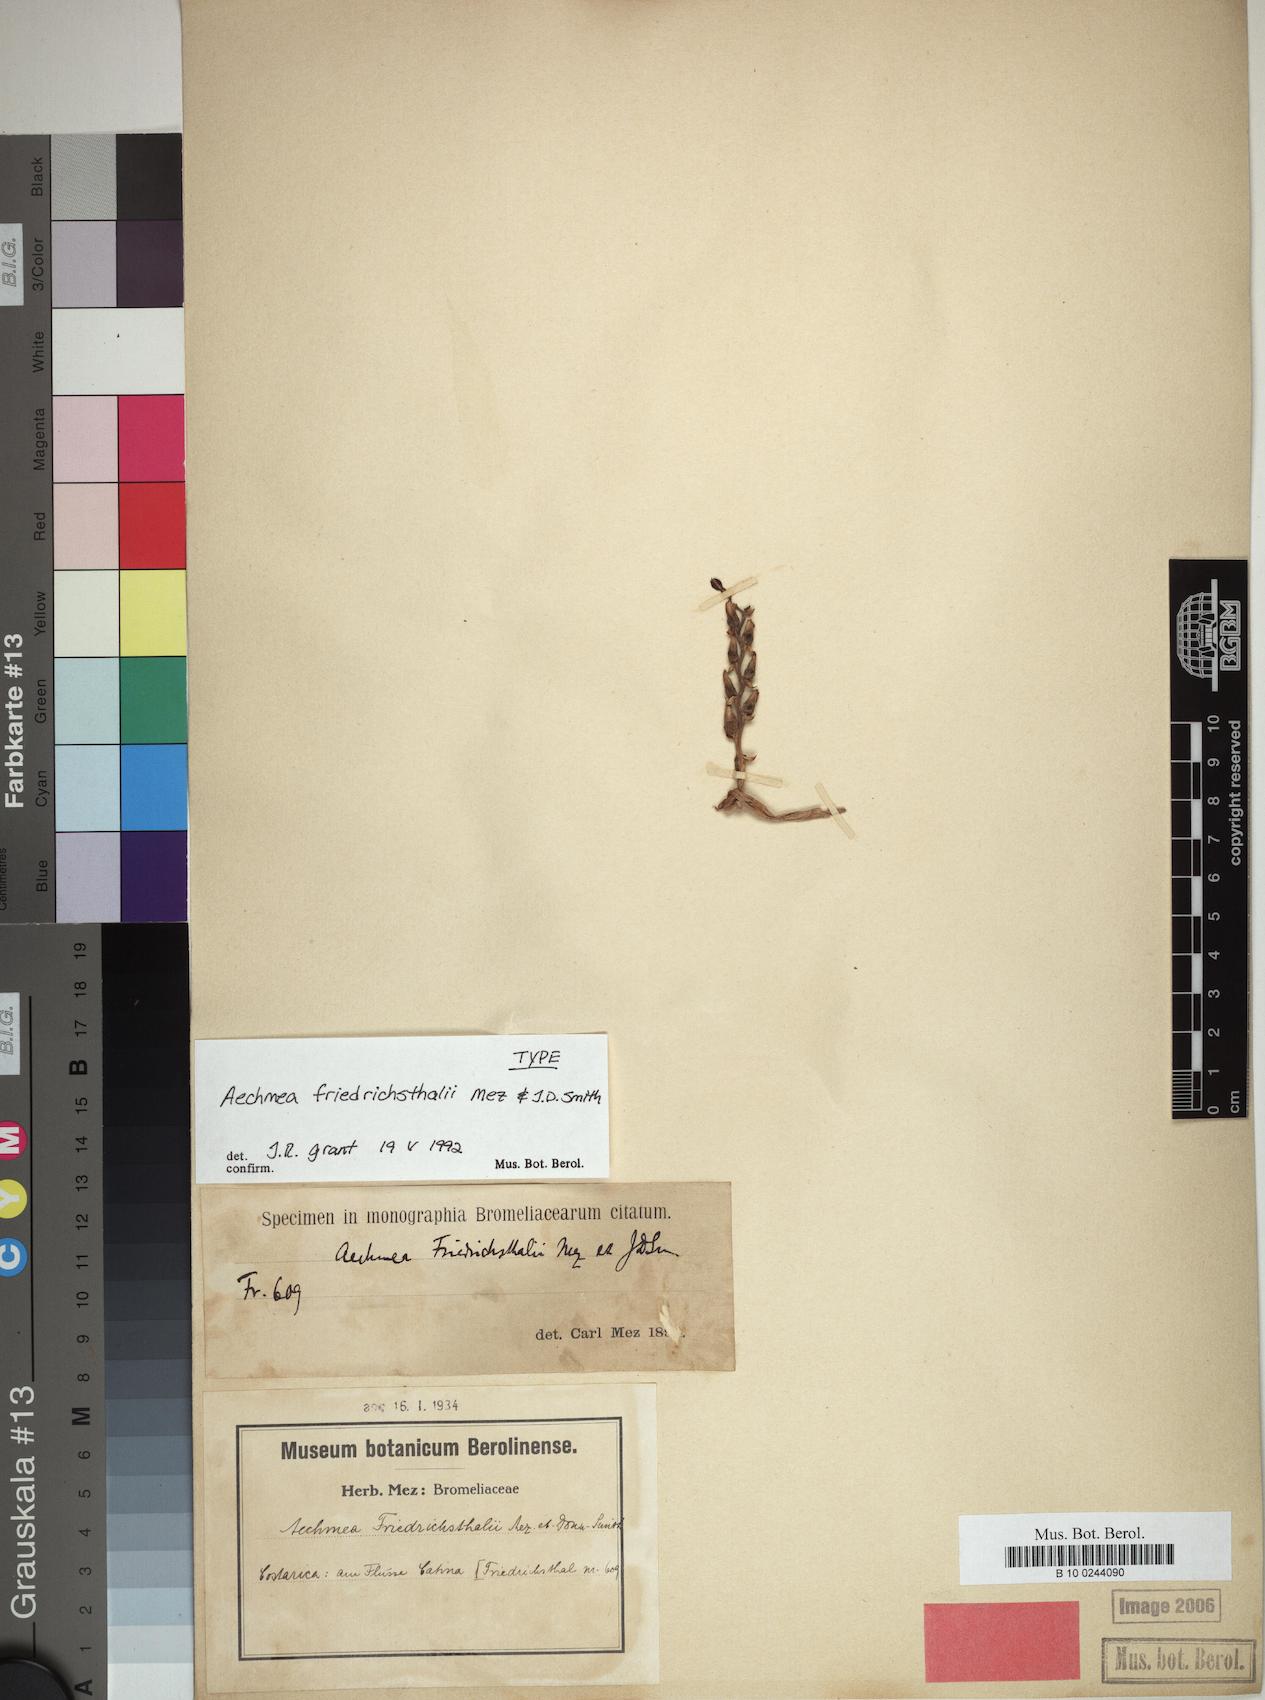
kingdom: Plantae
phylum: Tracheophyta
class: Liliopsida
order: Poales
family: Bromeliaceae
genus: Aechmea
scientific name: Aechmea penduliflora
